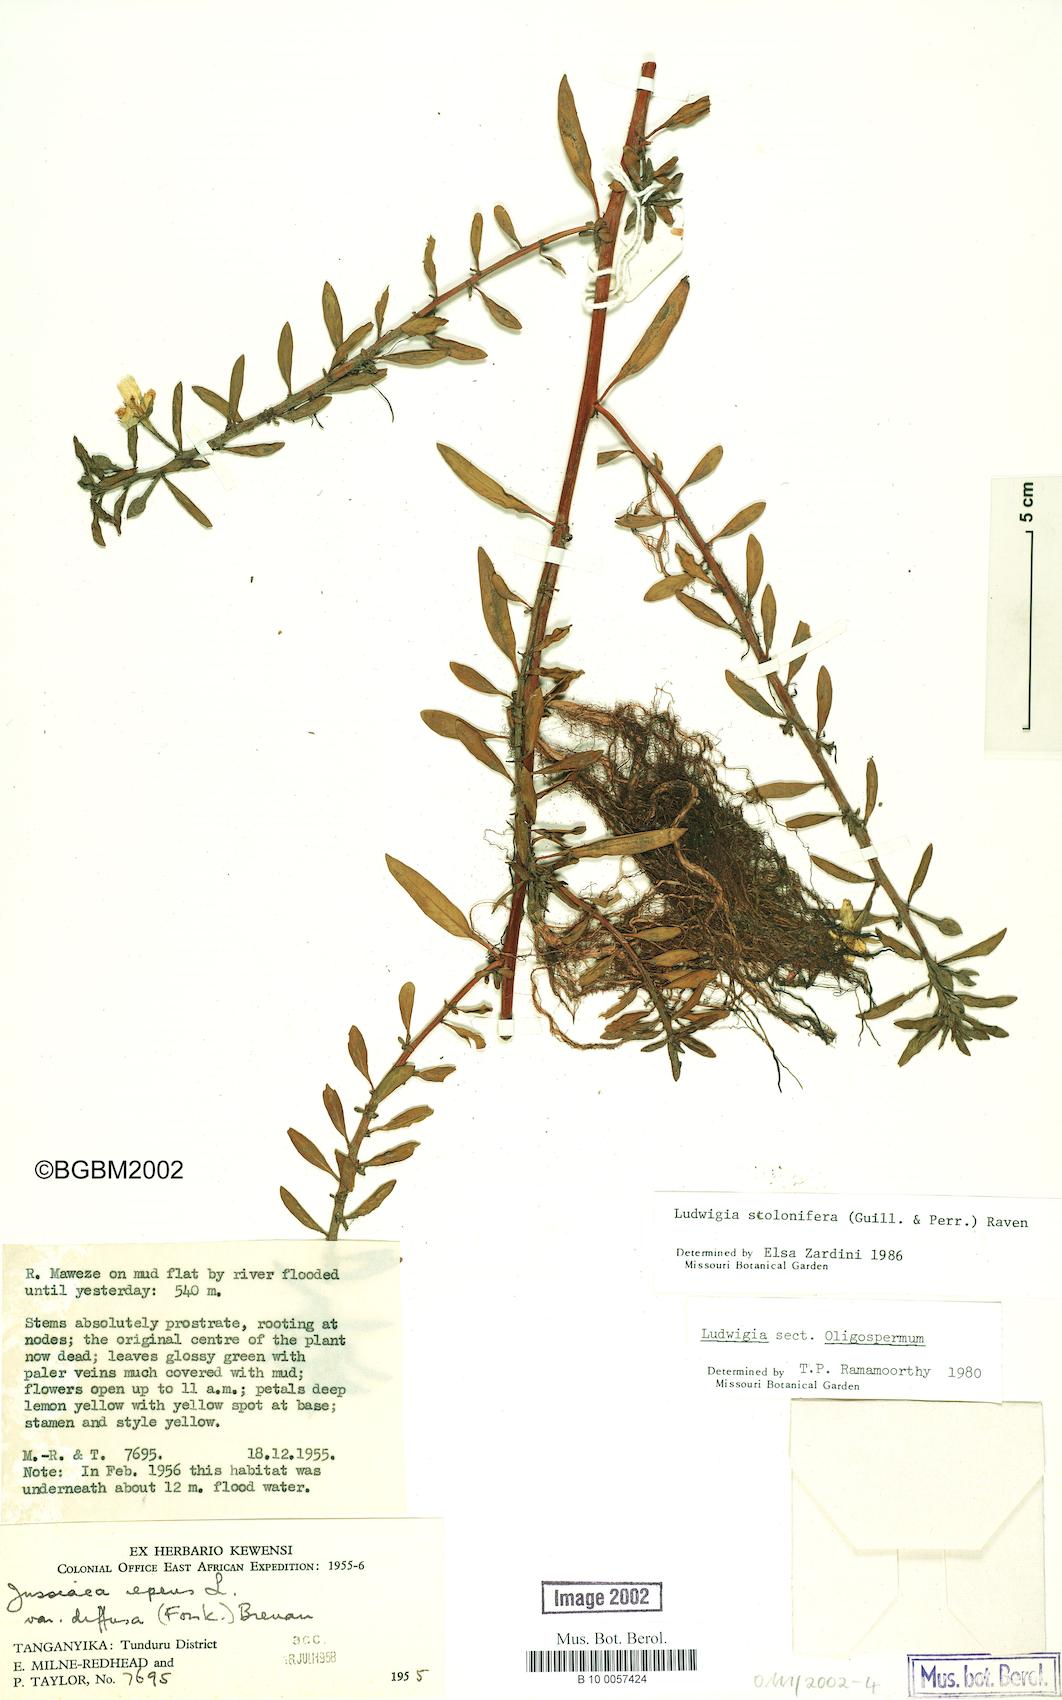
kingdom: Plantae
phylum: Tracheophyta
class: Magnoliopsida
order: Myrtales
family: Onagraceae
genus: Ludwigia
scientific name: Ludwigia adscendens
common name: Creeping water primrose
